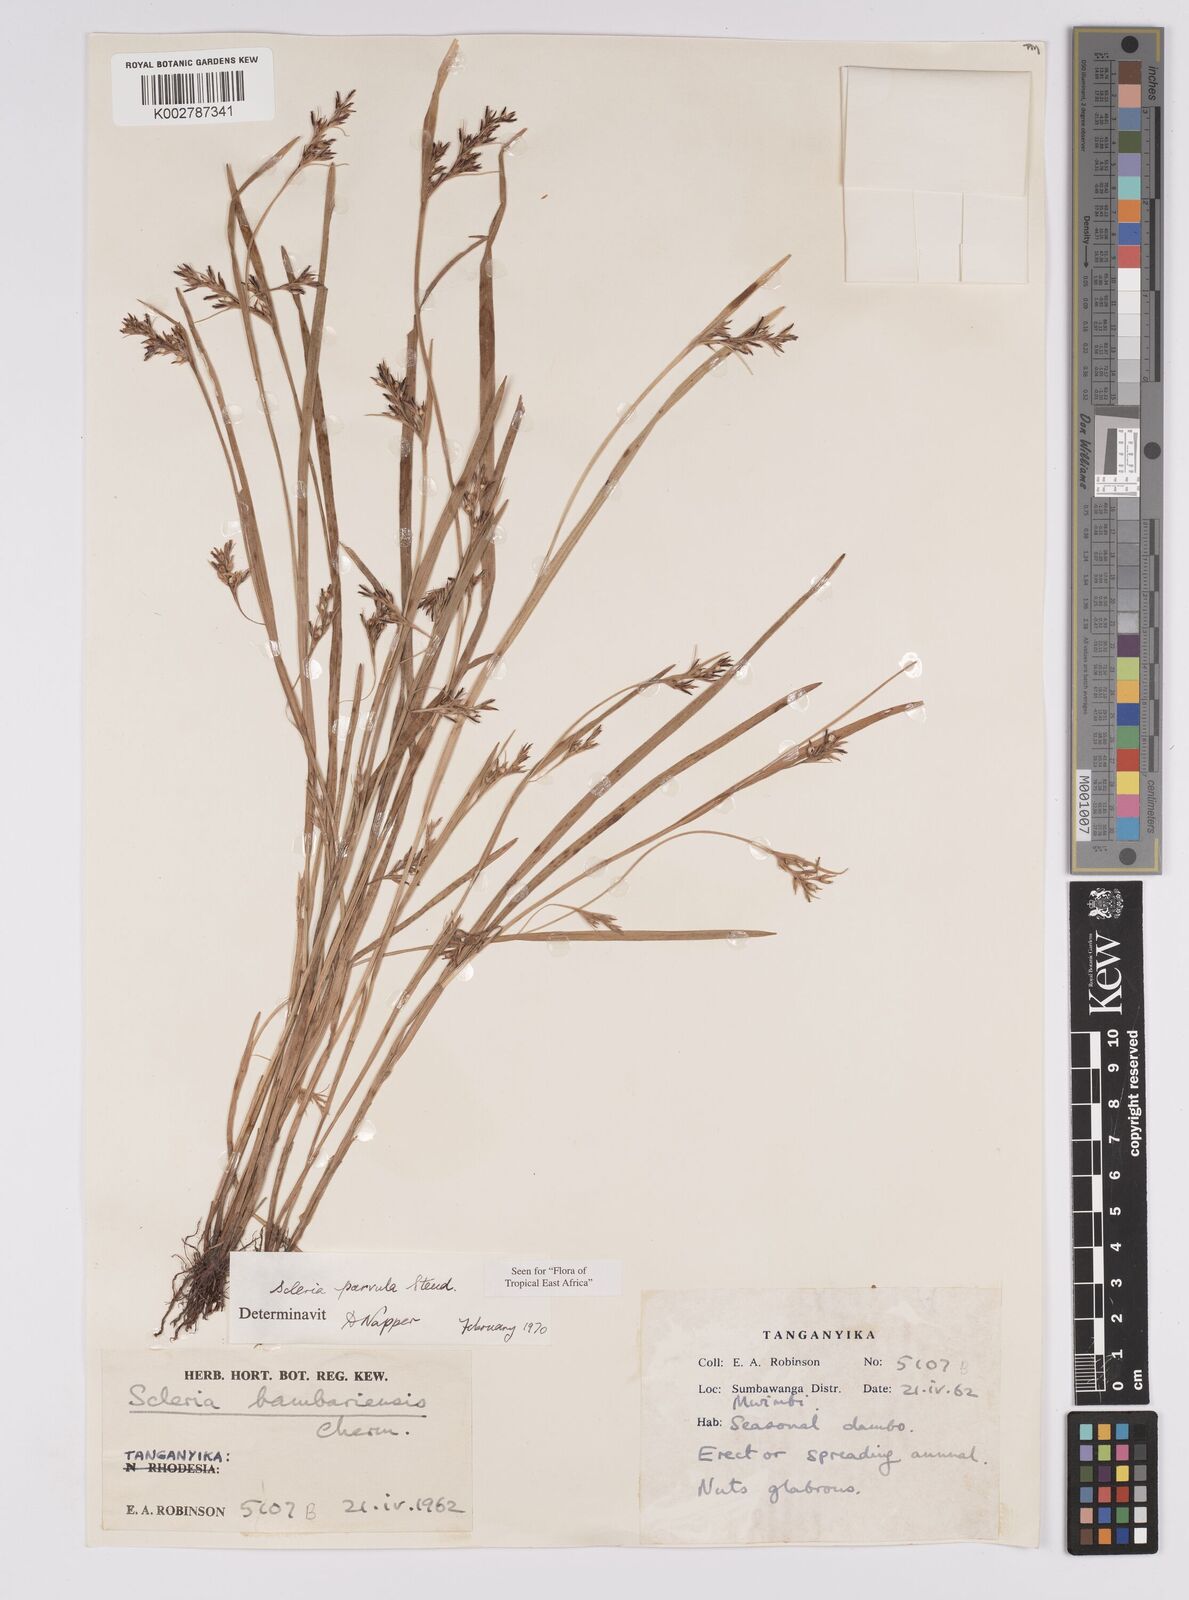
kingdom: Plantae
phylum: Tracheophyta
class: Liliopsida
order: Poales
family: Cyperaceae
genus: Scleria
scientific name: Scleria parvula
